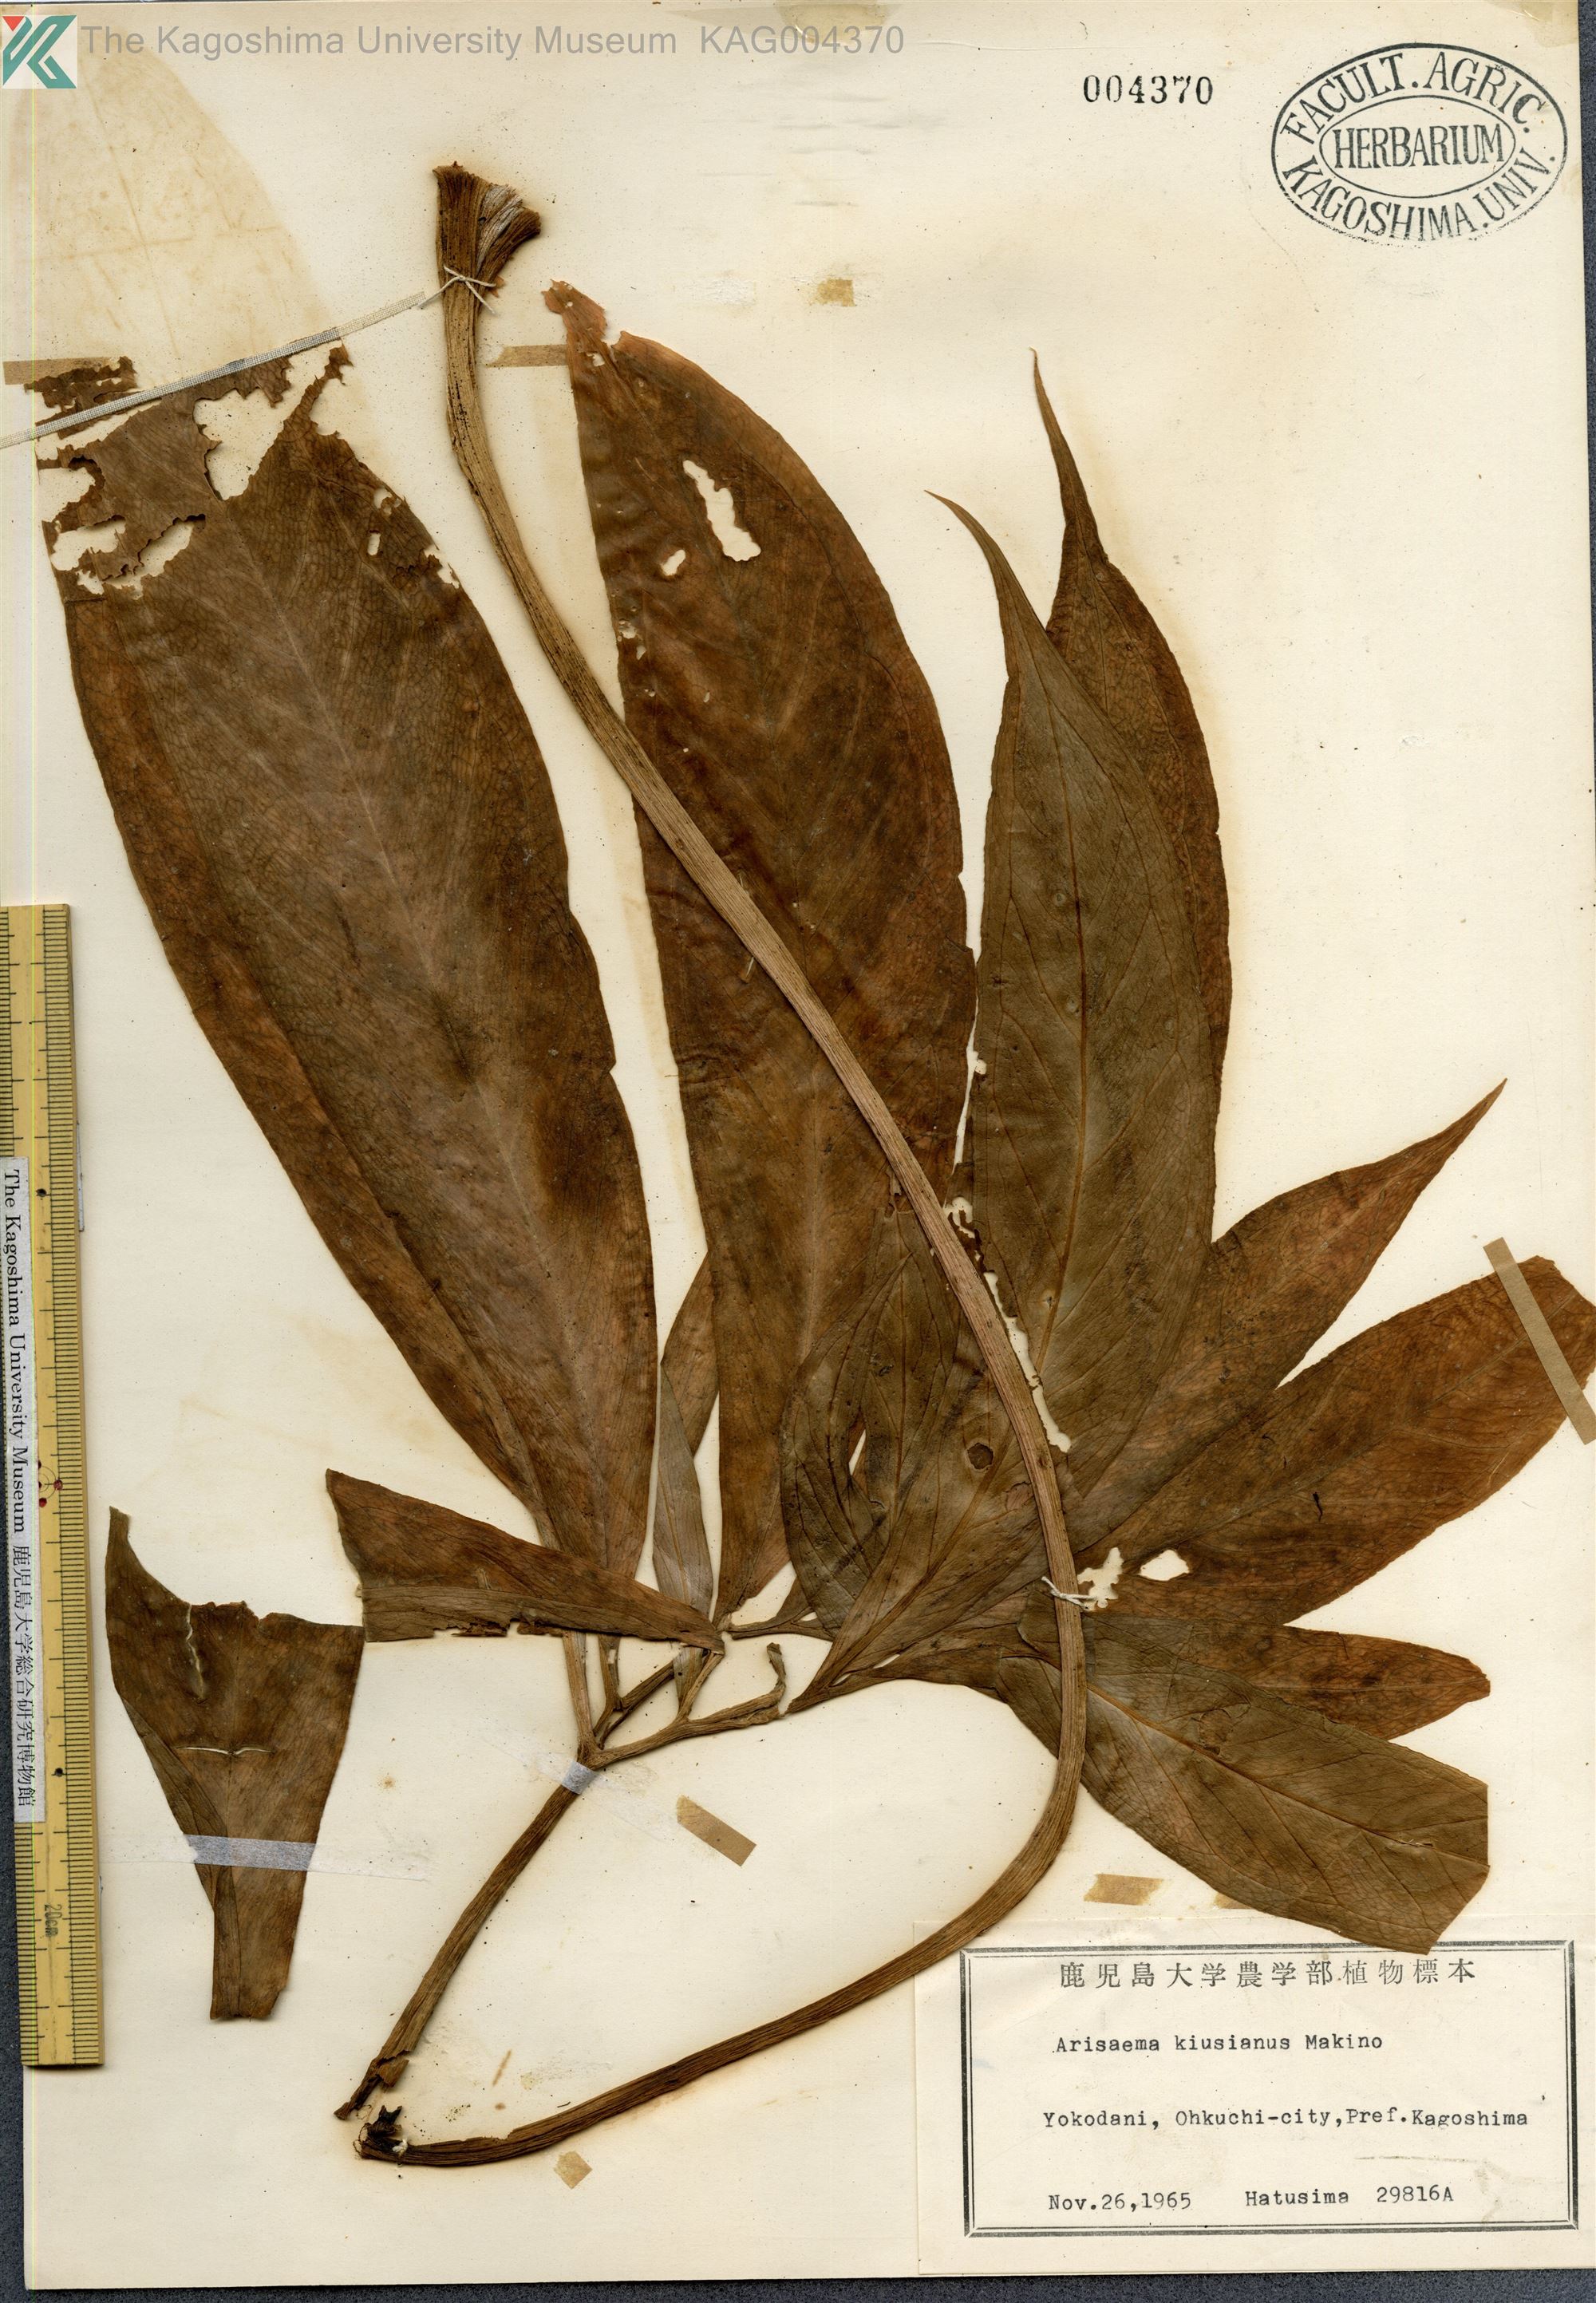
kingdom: Plantae
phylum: Tracheophyta
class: Liliopsida
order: Alismatales
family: Araceae
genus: Arisaema
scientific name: Arisaema kiushianum
